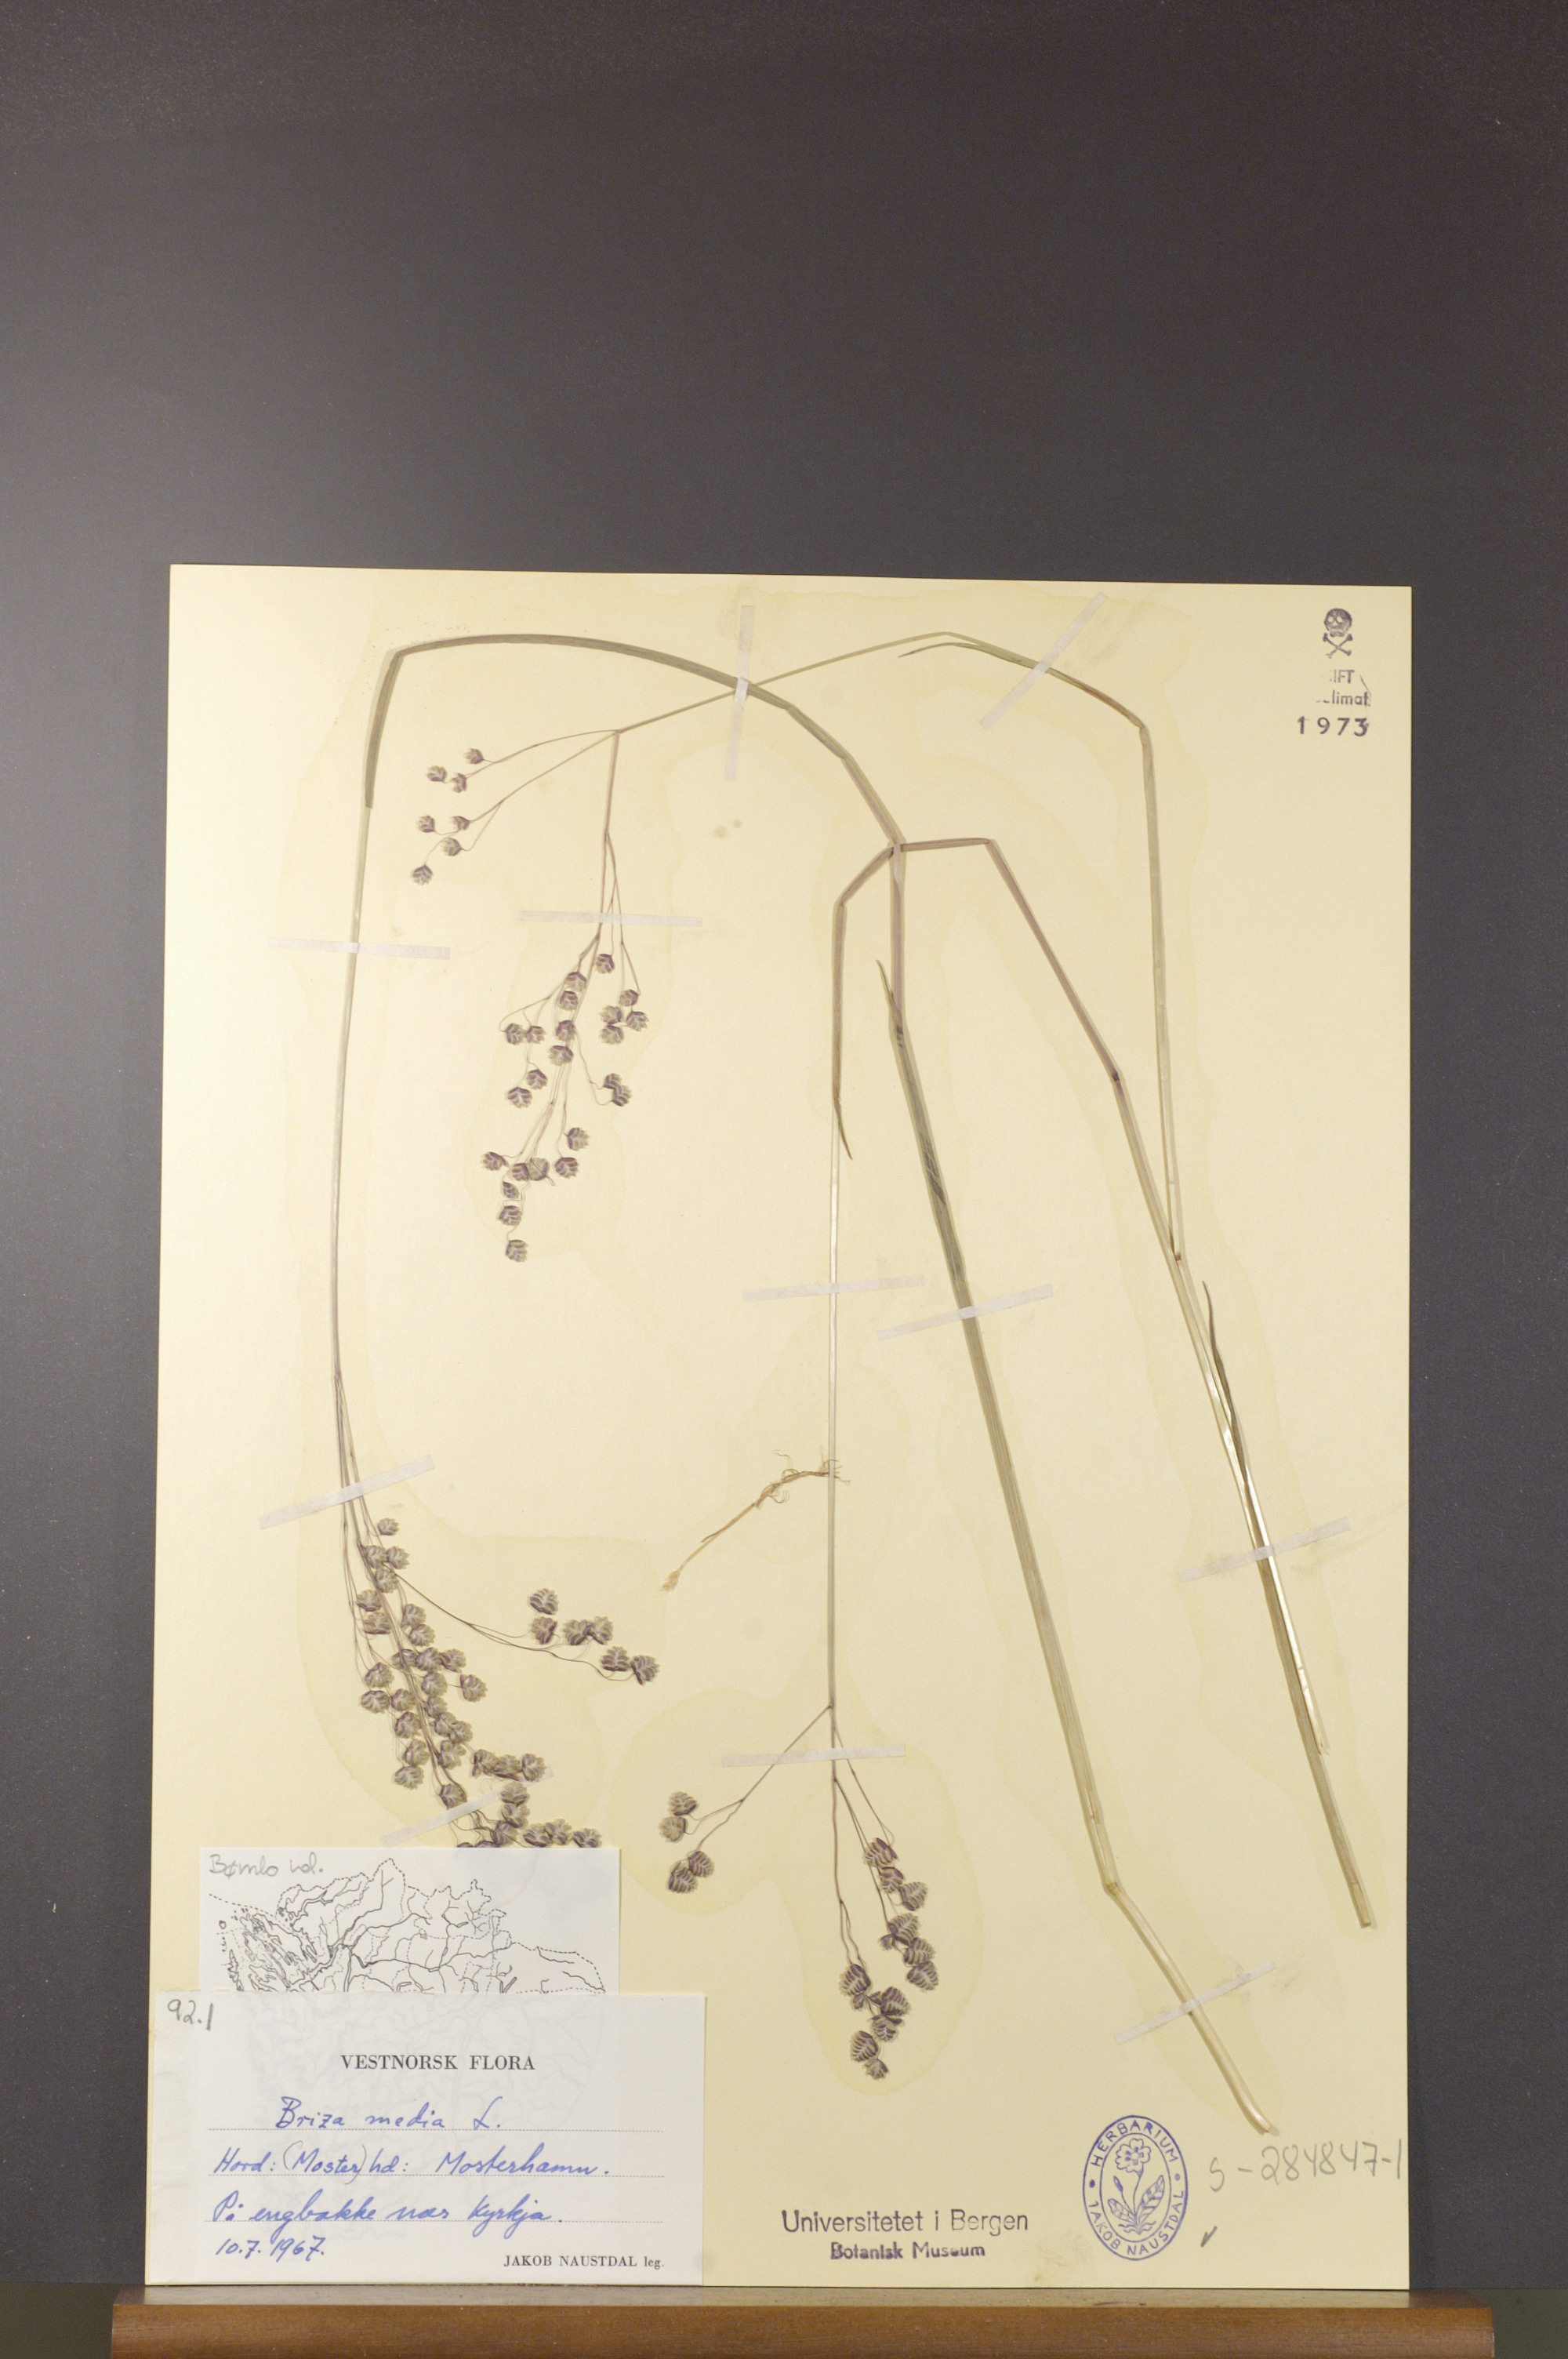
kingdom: Plantae
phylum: Tracheophyta
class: Liliopsida
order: Poales
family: Poaceae
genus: Briza
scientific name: Briza media
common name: Quaking grass
